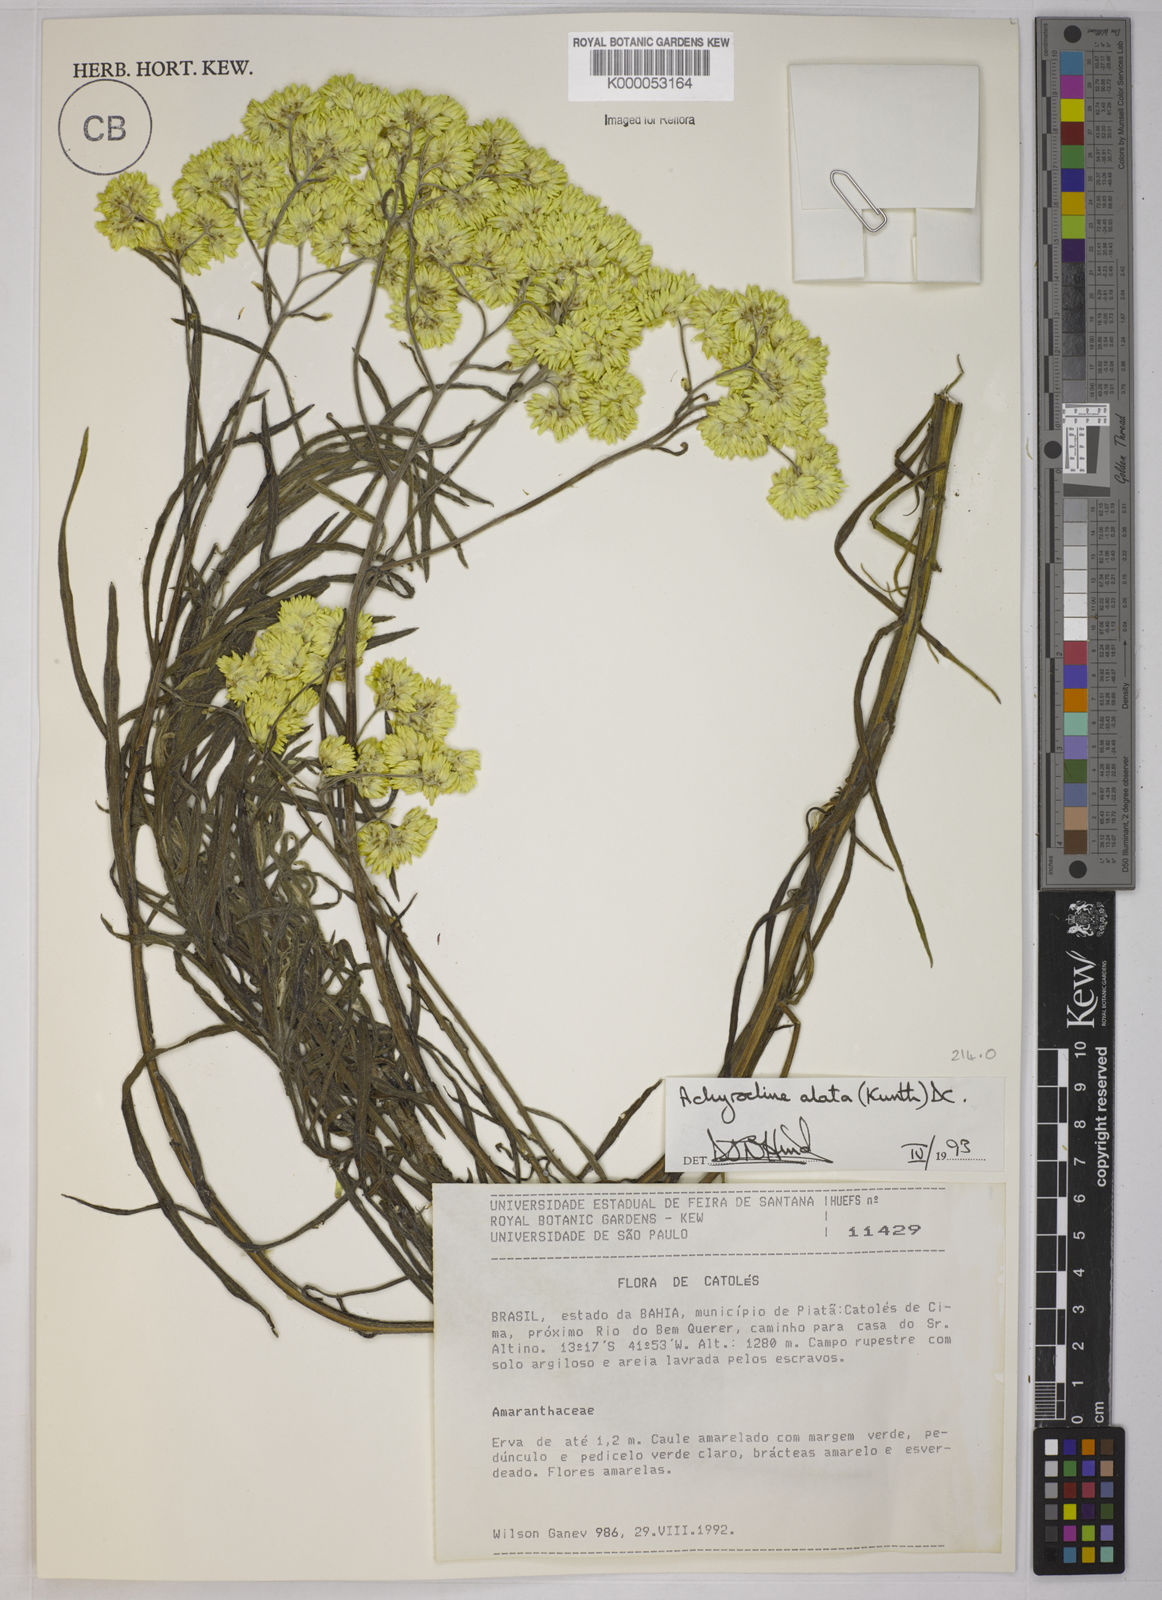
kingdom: Plantae
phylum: Tracheophyta
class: Magnoliopsida
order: Asterales
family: Asteraceae
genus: Achyrocline
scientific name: Achyrocline alata
